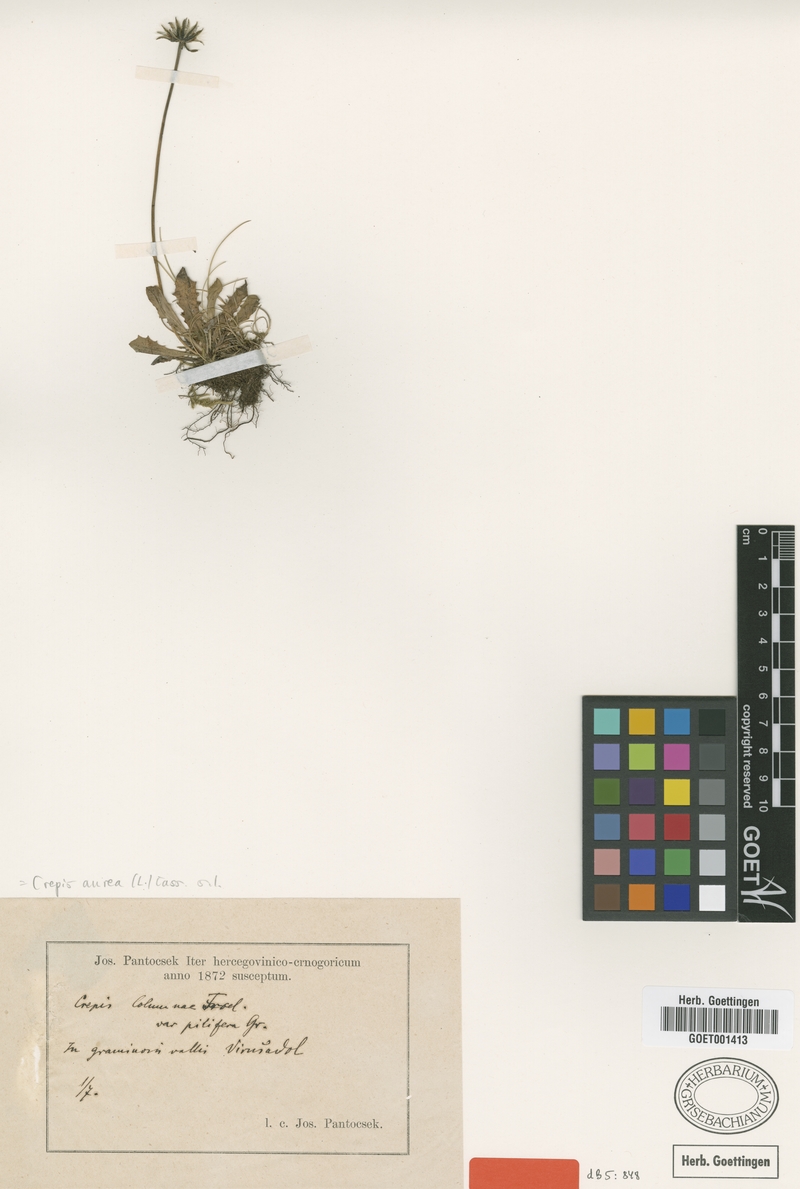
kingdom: Plantae
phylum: Tracheophyta
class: Magnoliopsida
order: Asterales
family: Asteraceae
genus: Crepis
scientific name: Crepis aurea
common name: Golden hawk's-beard
